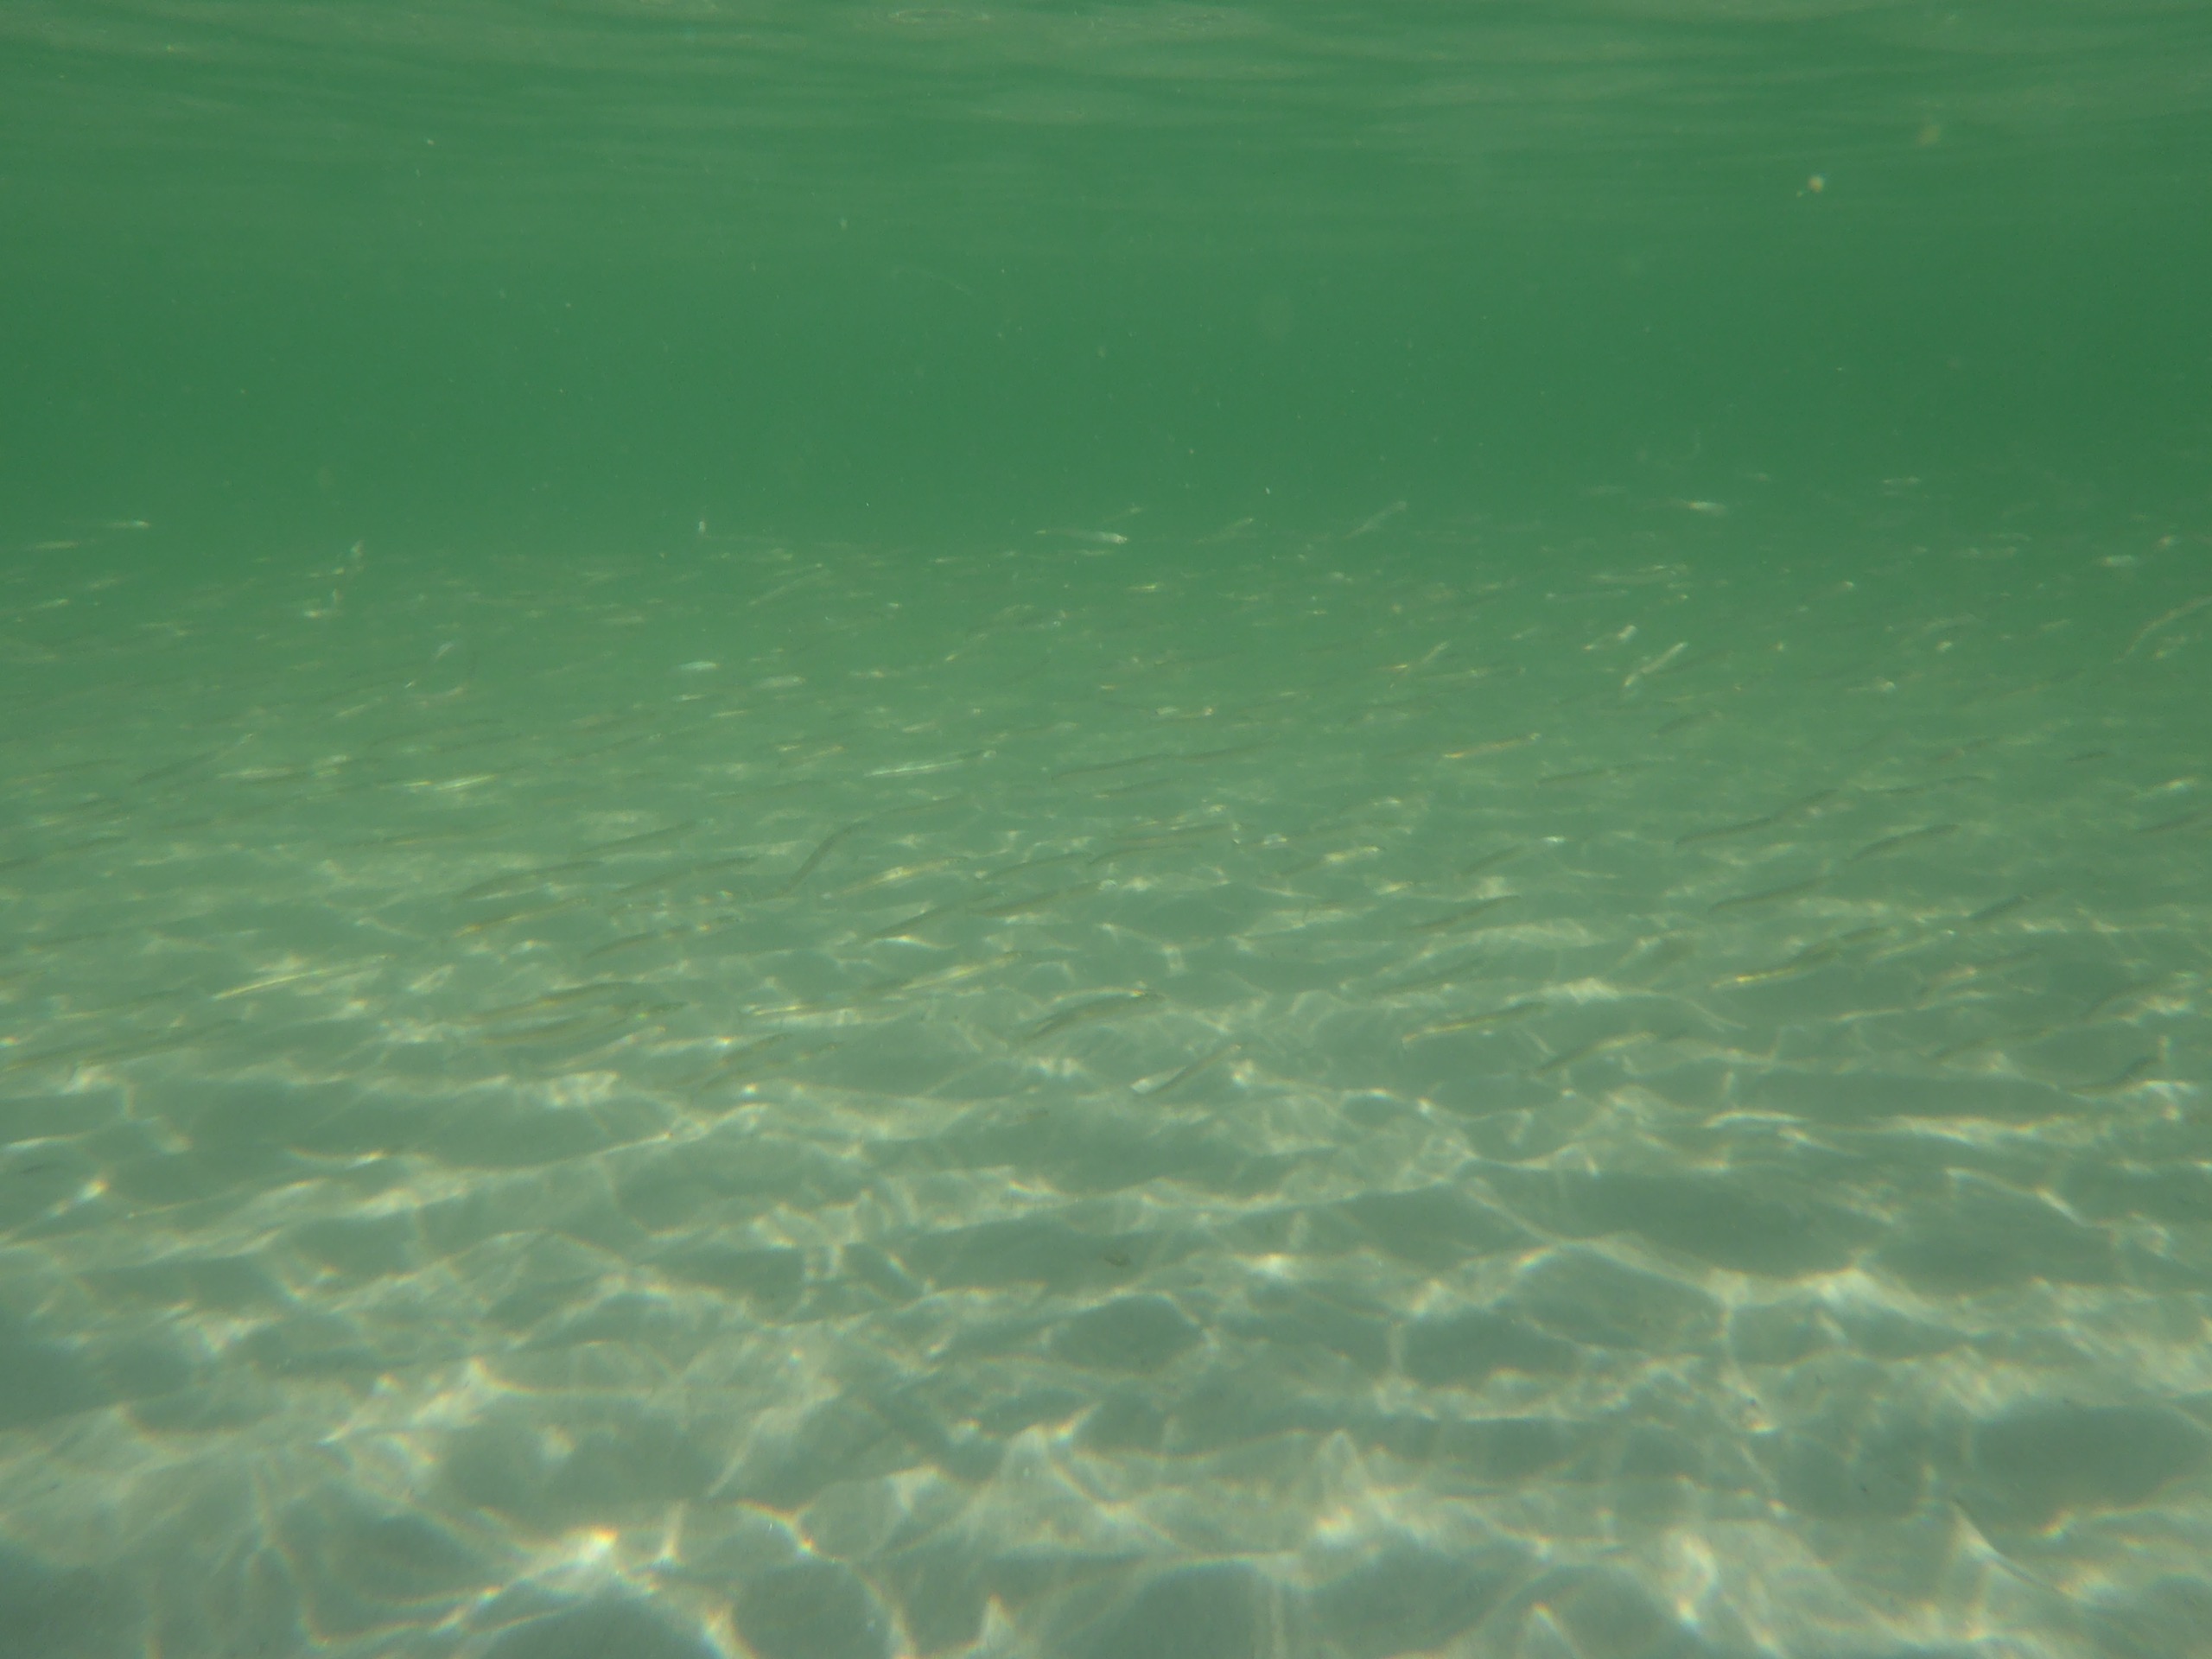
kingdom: Animalia
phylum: Chordata
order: Perciformes
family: Ammodytidae
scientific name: Ammodytidae
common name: Tobisfamilien
